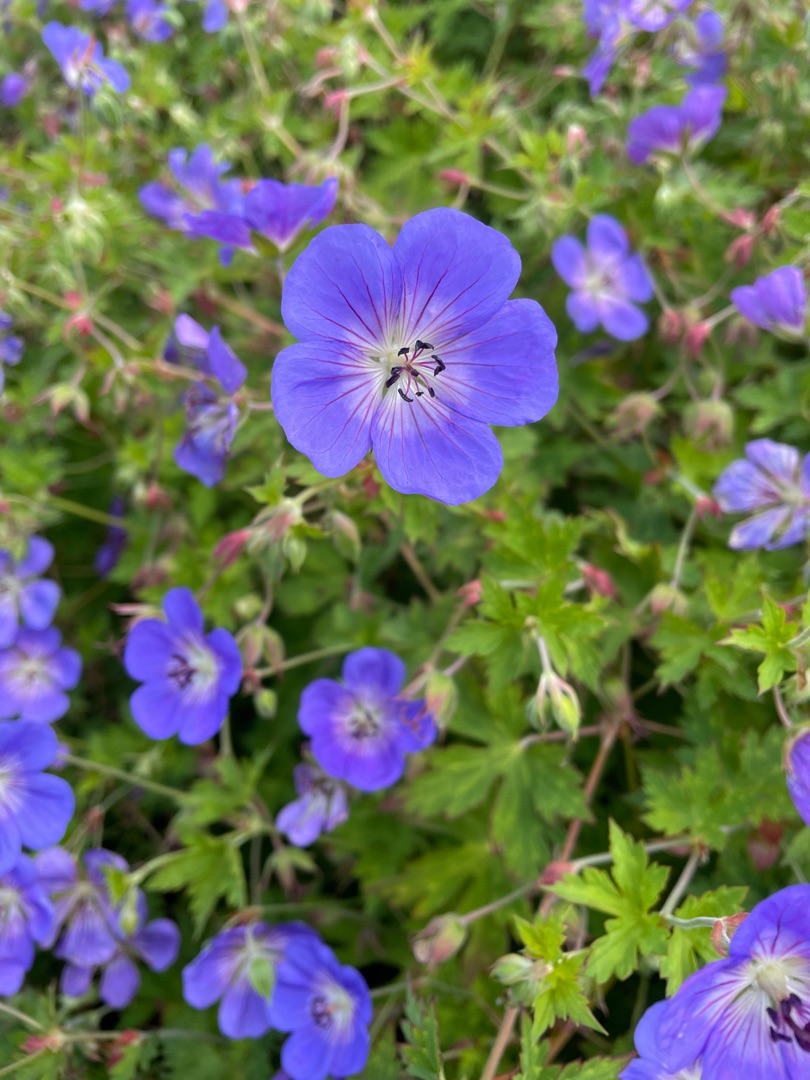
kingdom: Plantae
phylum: Tracheophyta
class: Magnoliopsida
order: Geraniales
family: Geraniaceae
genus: Geranium
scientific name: Geranium
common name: Storkenæbslægten
